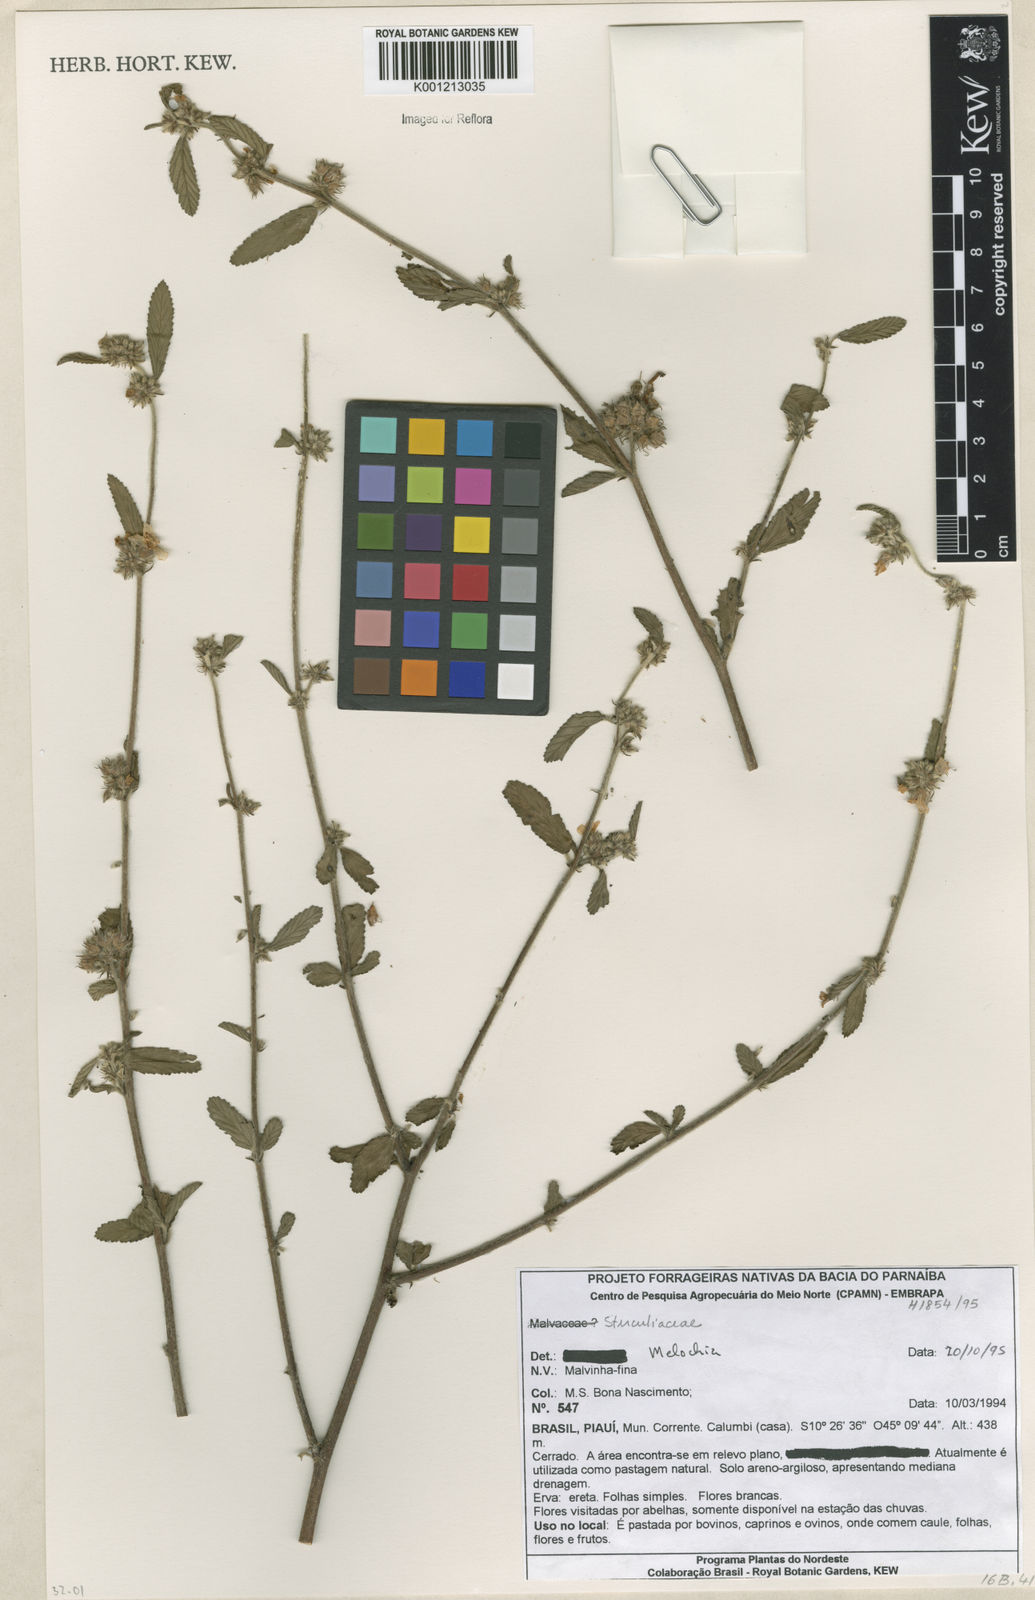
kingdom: Plantae
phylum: Tracheophyta
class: Magnoliopsida
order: Malvales
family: Malvaceae
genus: Melochia
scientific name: Melochia
